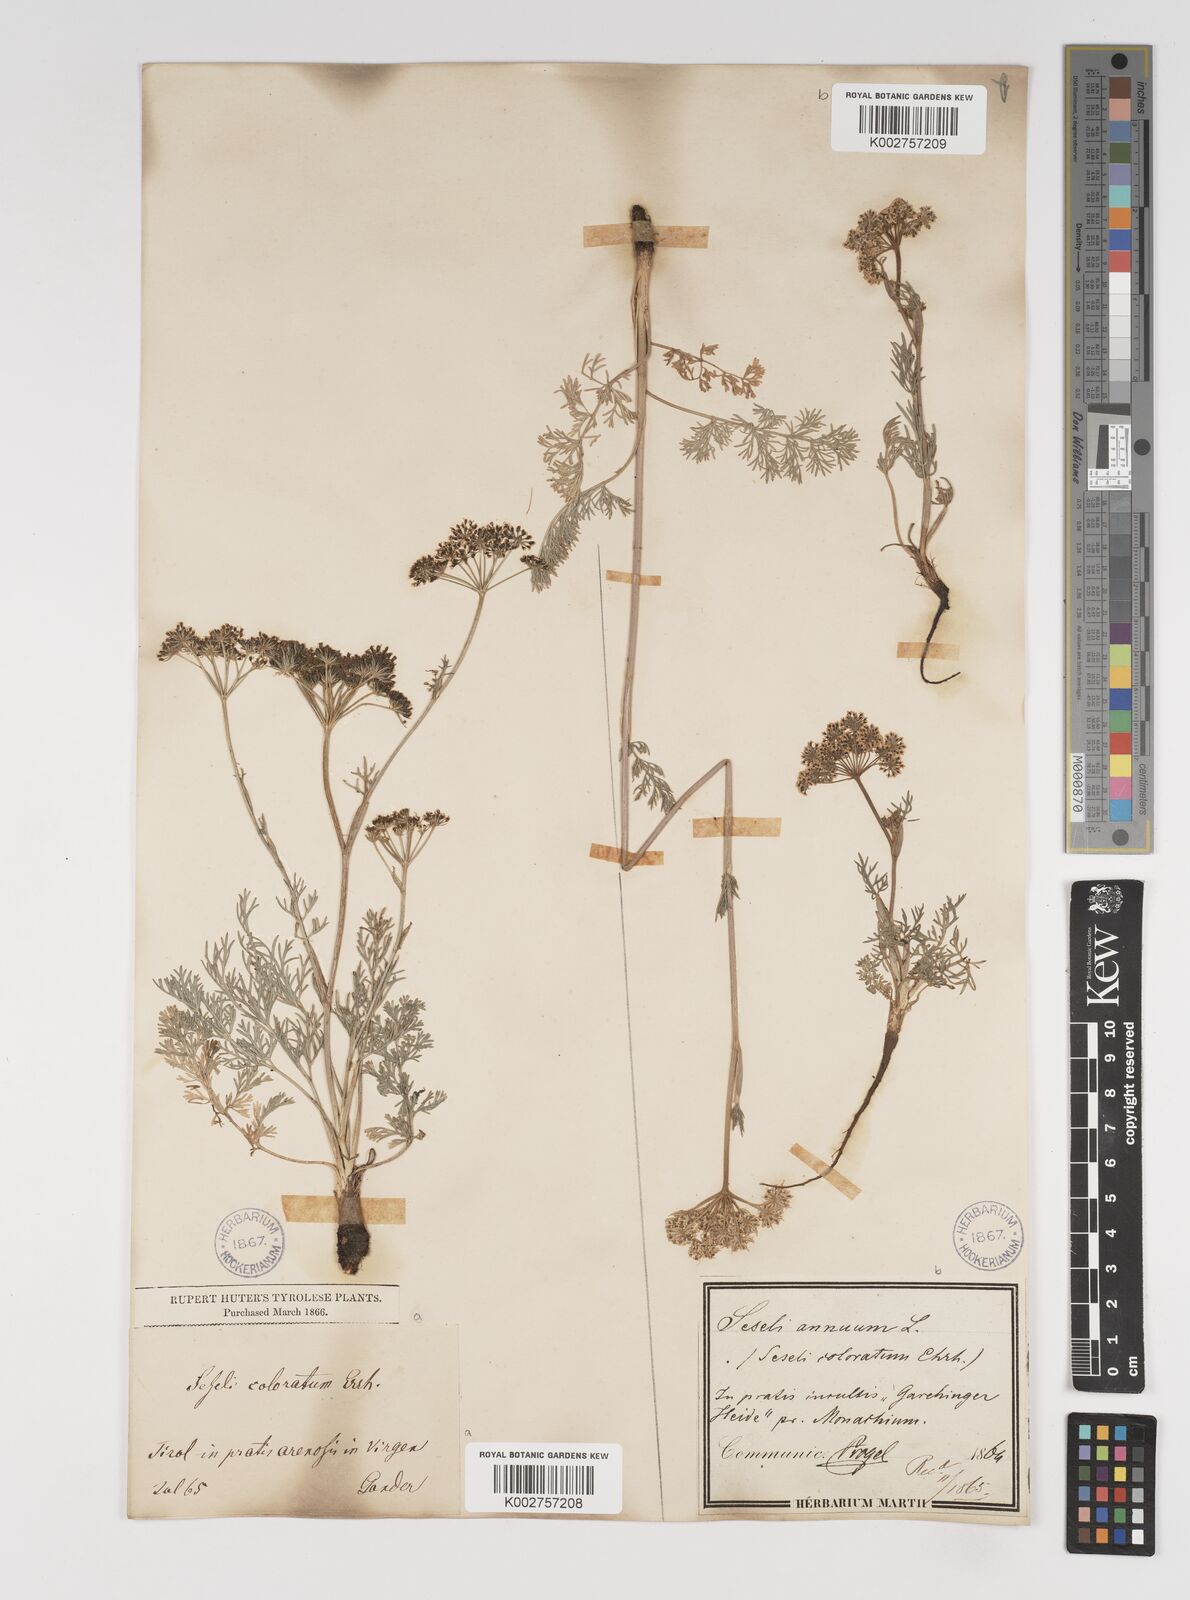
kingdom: Plantae
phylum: Tracheophyta
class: Magnoliopsida
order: Apiales
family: Apiaceae
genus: Seseli
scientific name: Seseli annuum
